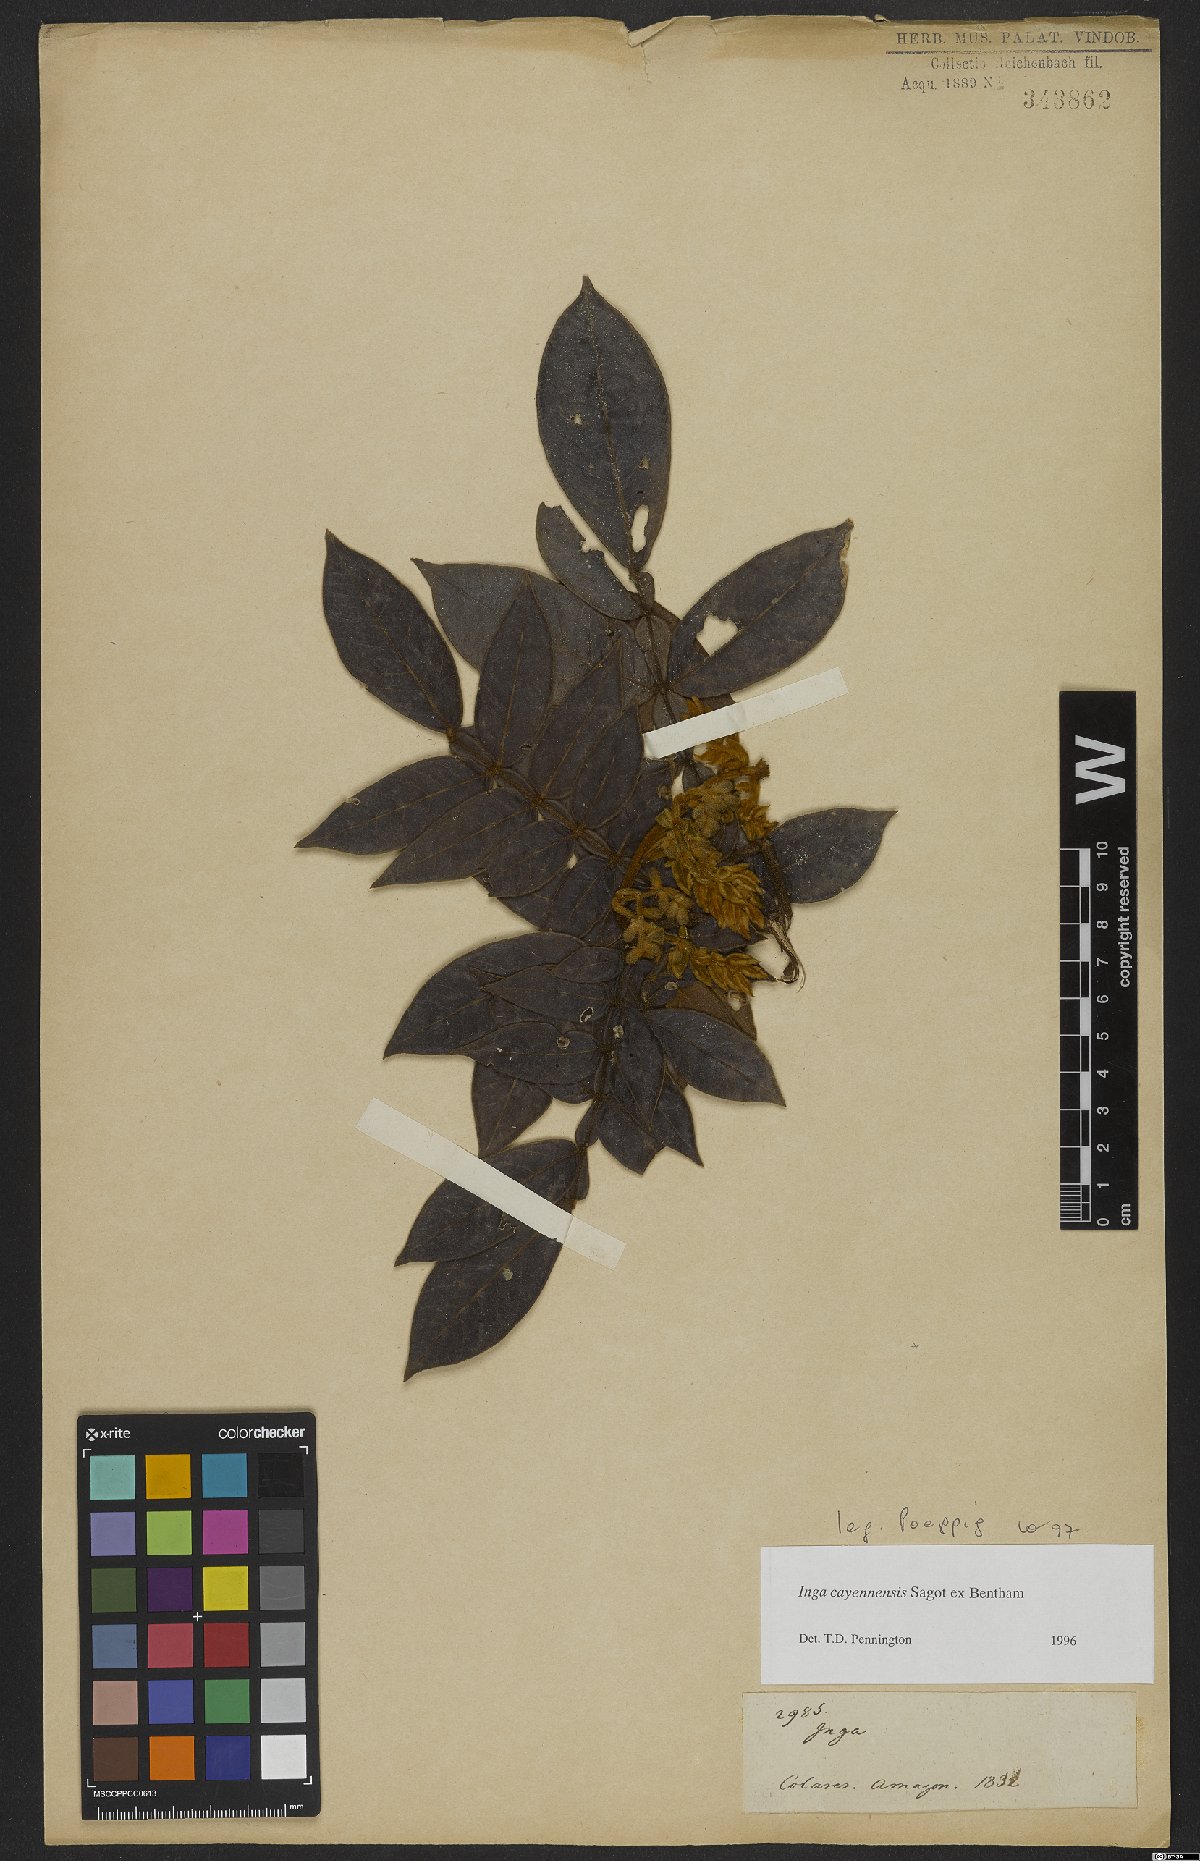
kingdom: Plantae
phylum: Tracheophyta
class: Magnoliopsida
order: Fabales
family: Fabaceae
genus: Inga
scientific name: Inga cayennensis
